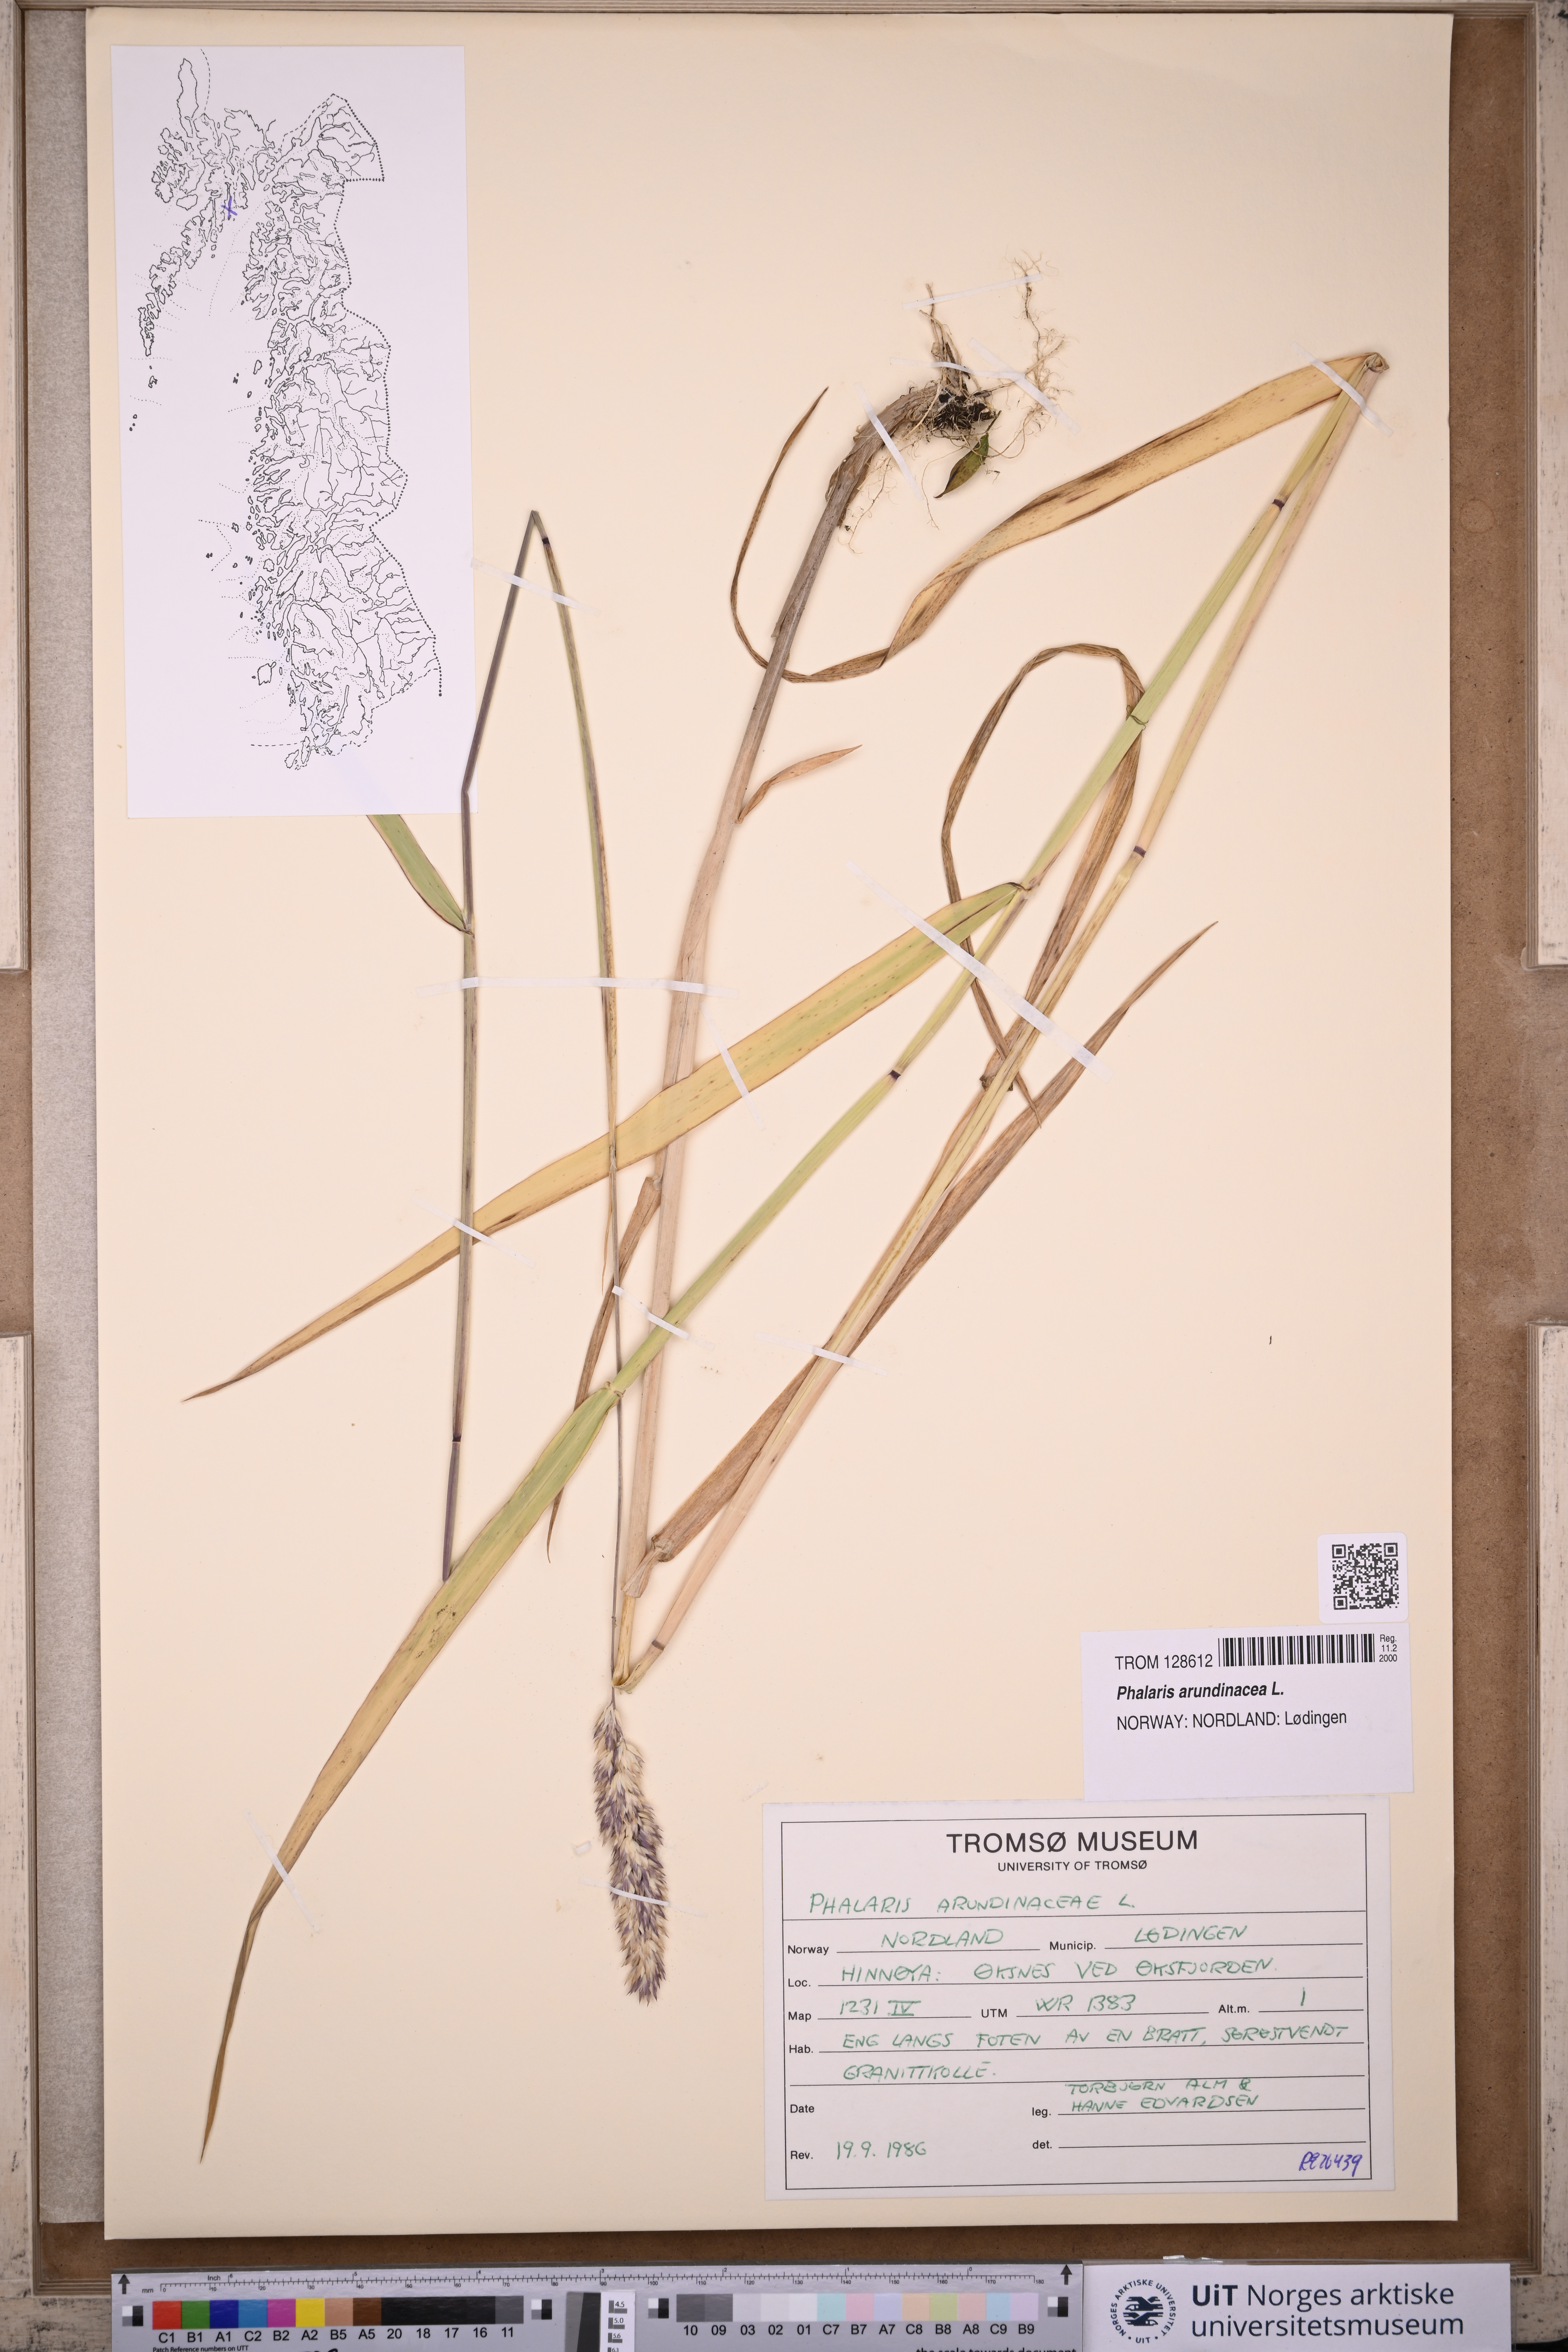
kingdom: Plantae
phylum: Tracheophyta
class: Liliopsida
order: Poales
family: Poaceae
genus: Phalaris
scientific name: Phalaris arundinacea
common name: Reed canary-grass
